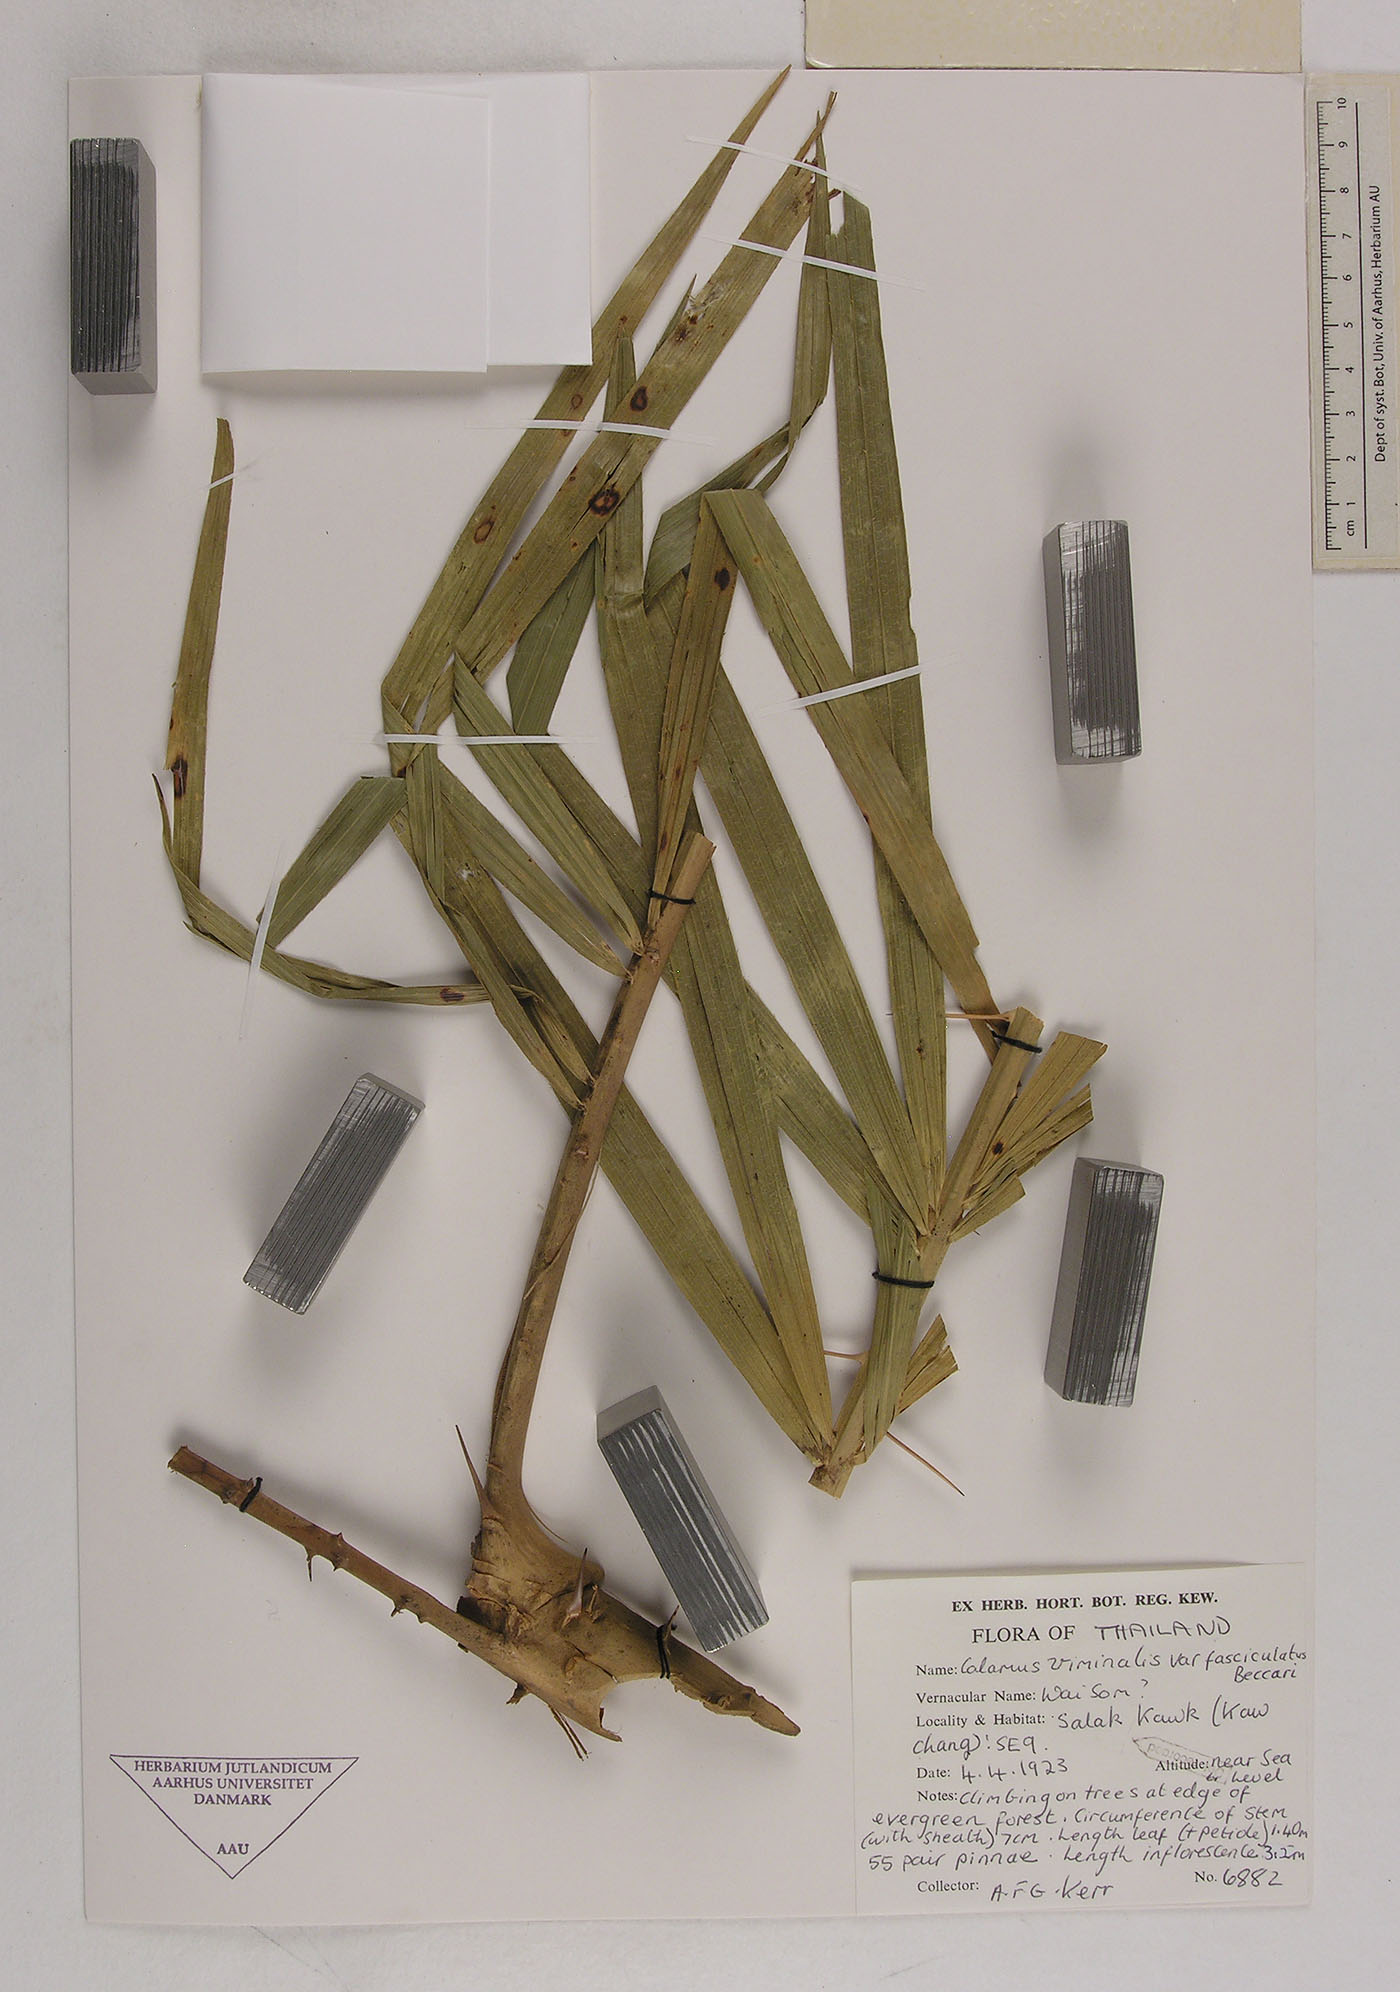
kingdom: Plantae
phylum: Tracheophyta
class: Liliopsida
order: Arecales
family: Arecaceae
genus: Calamus
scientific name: Calamus viminalis
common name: Osier-like rattan palm
